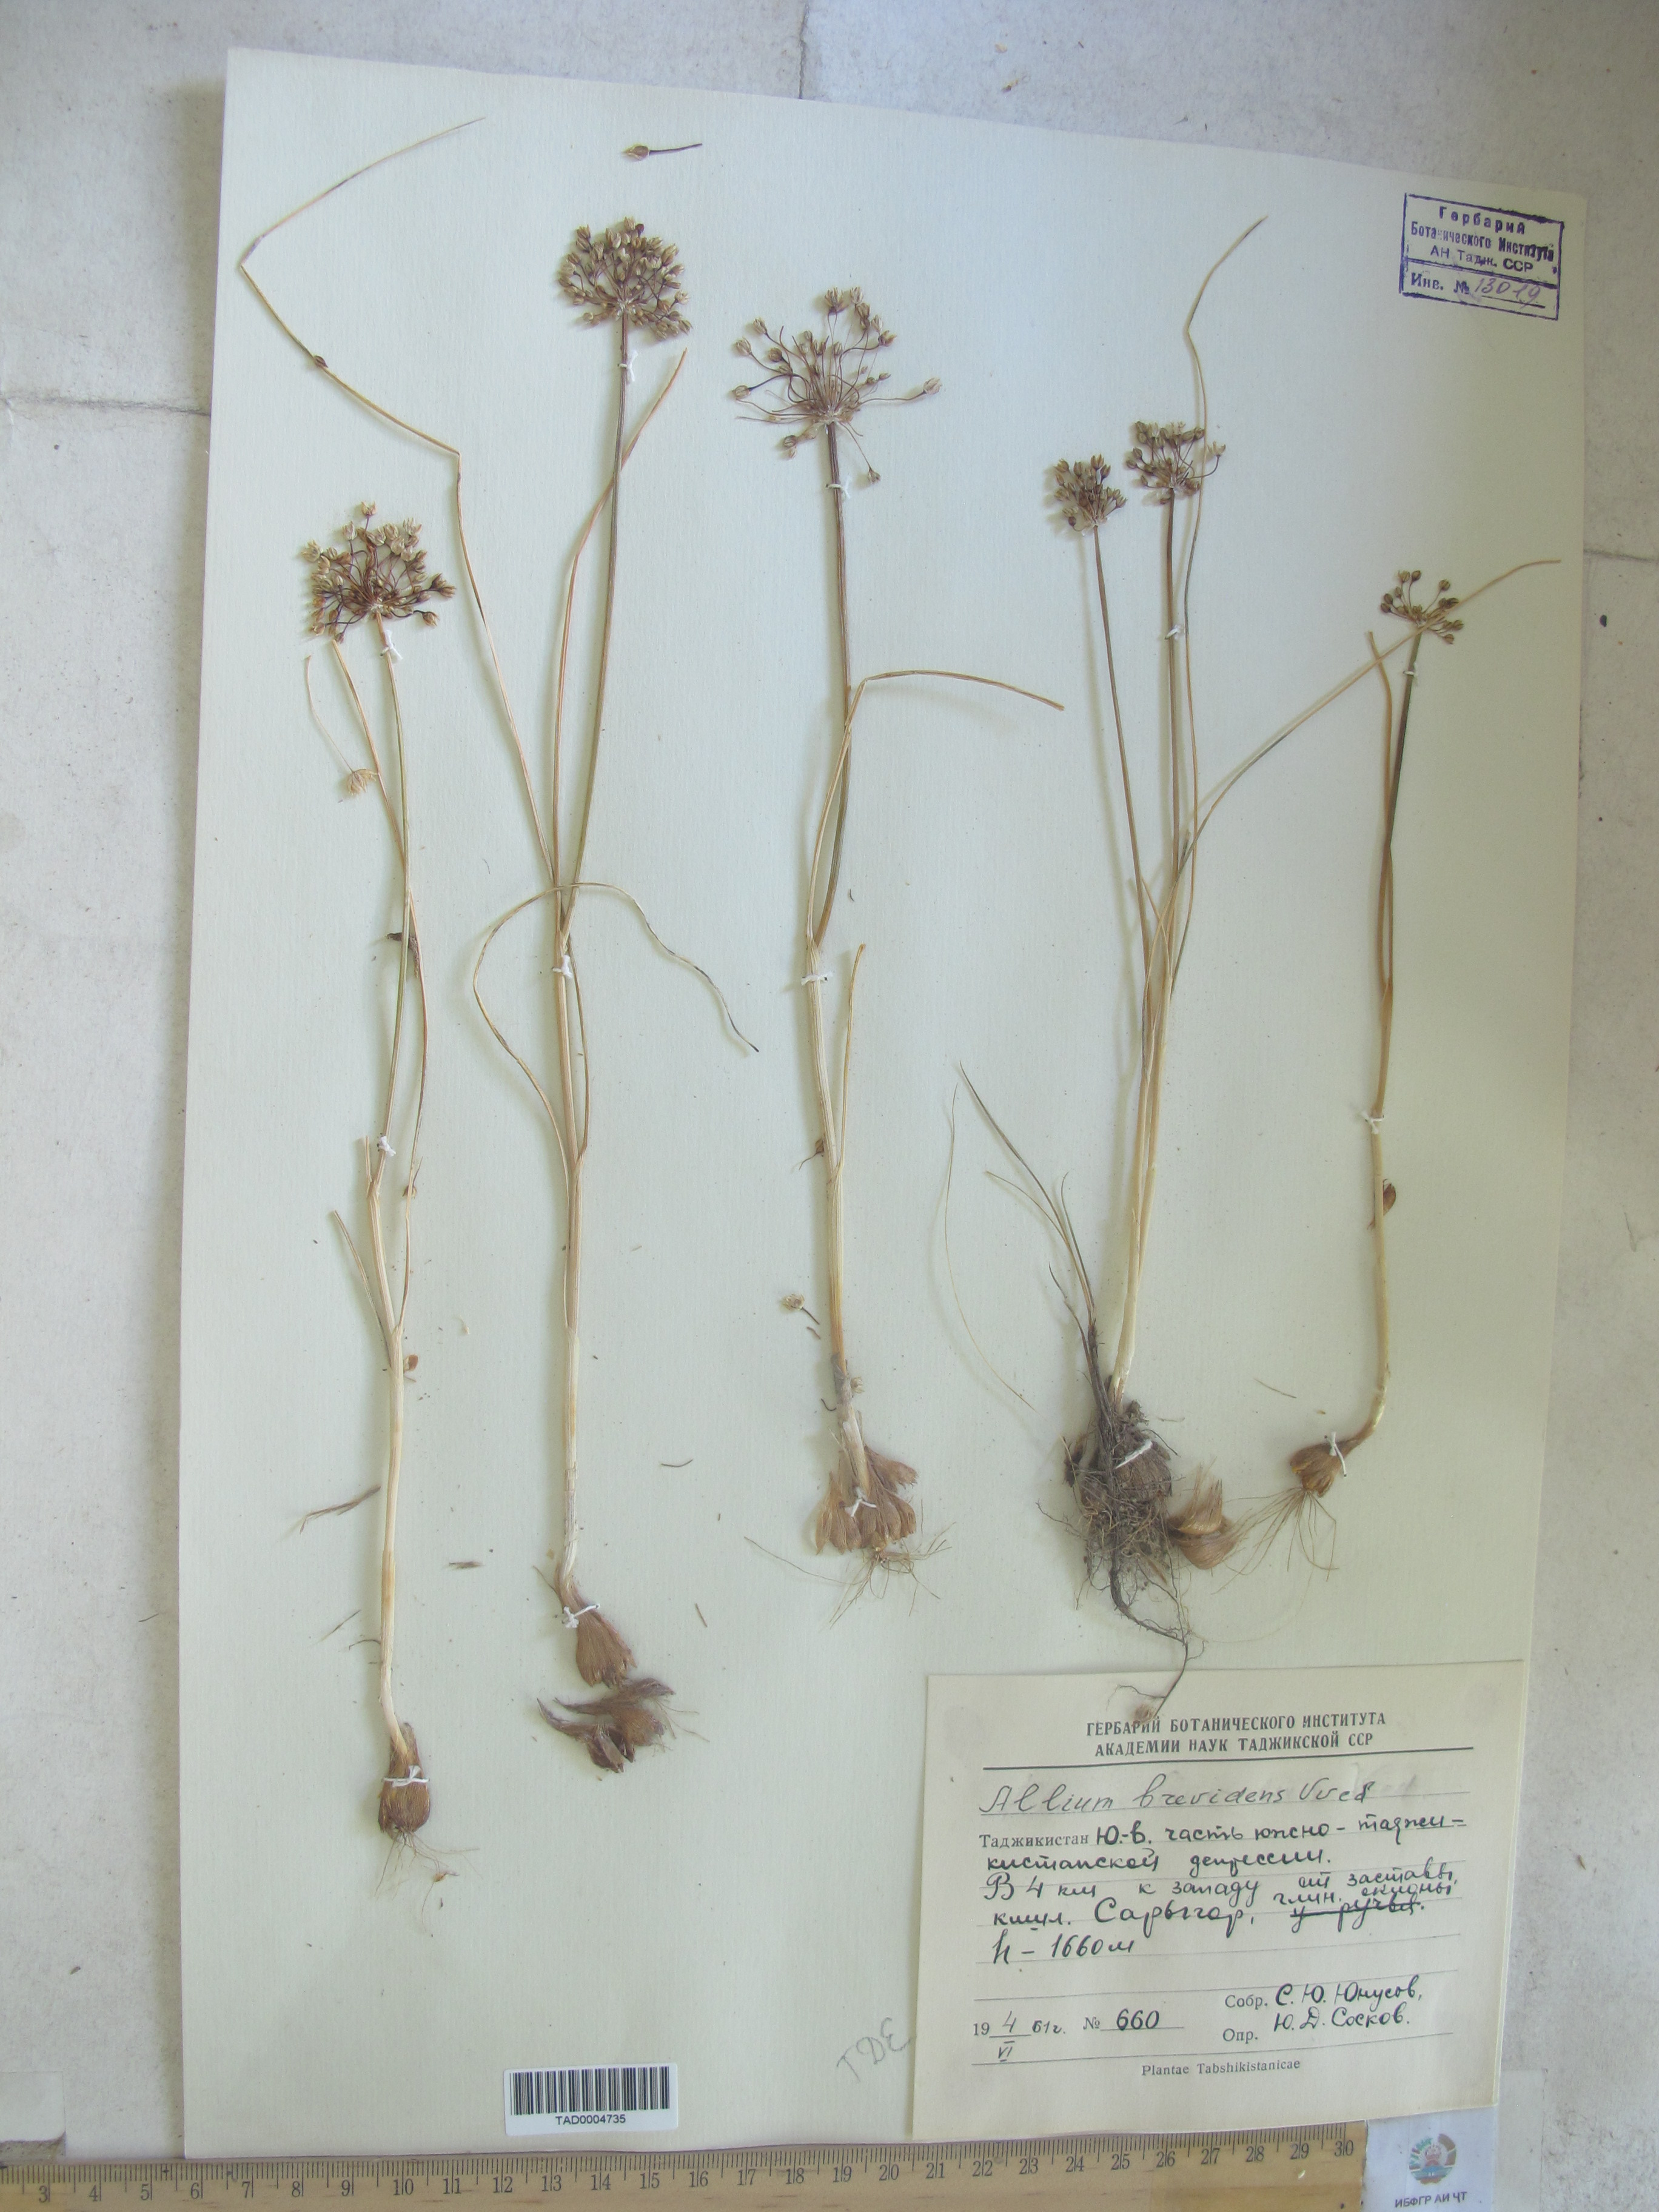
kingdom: Plantae
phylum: Tracheophyta
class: Liliopsida
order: Asparagales
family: Amaryllidaceae
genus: Allium
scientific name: Allium brevidens
